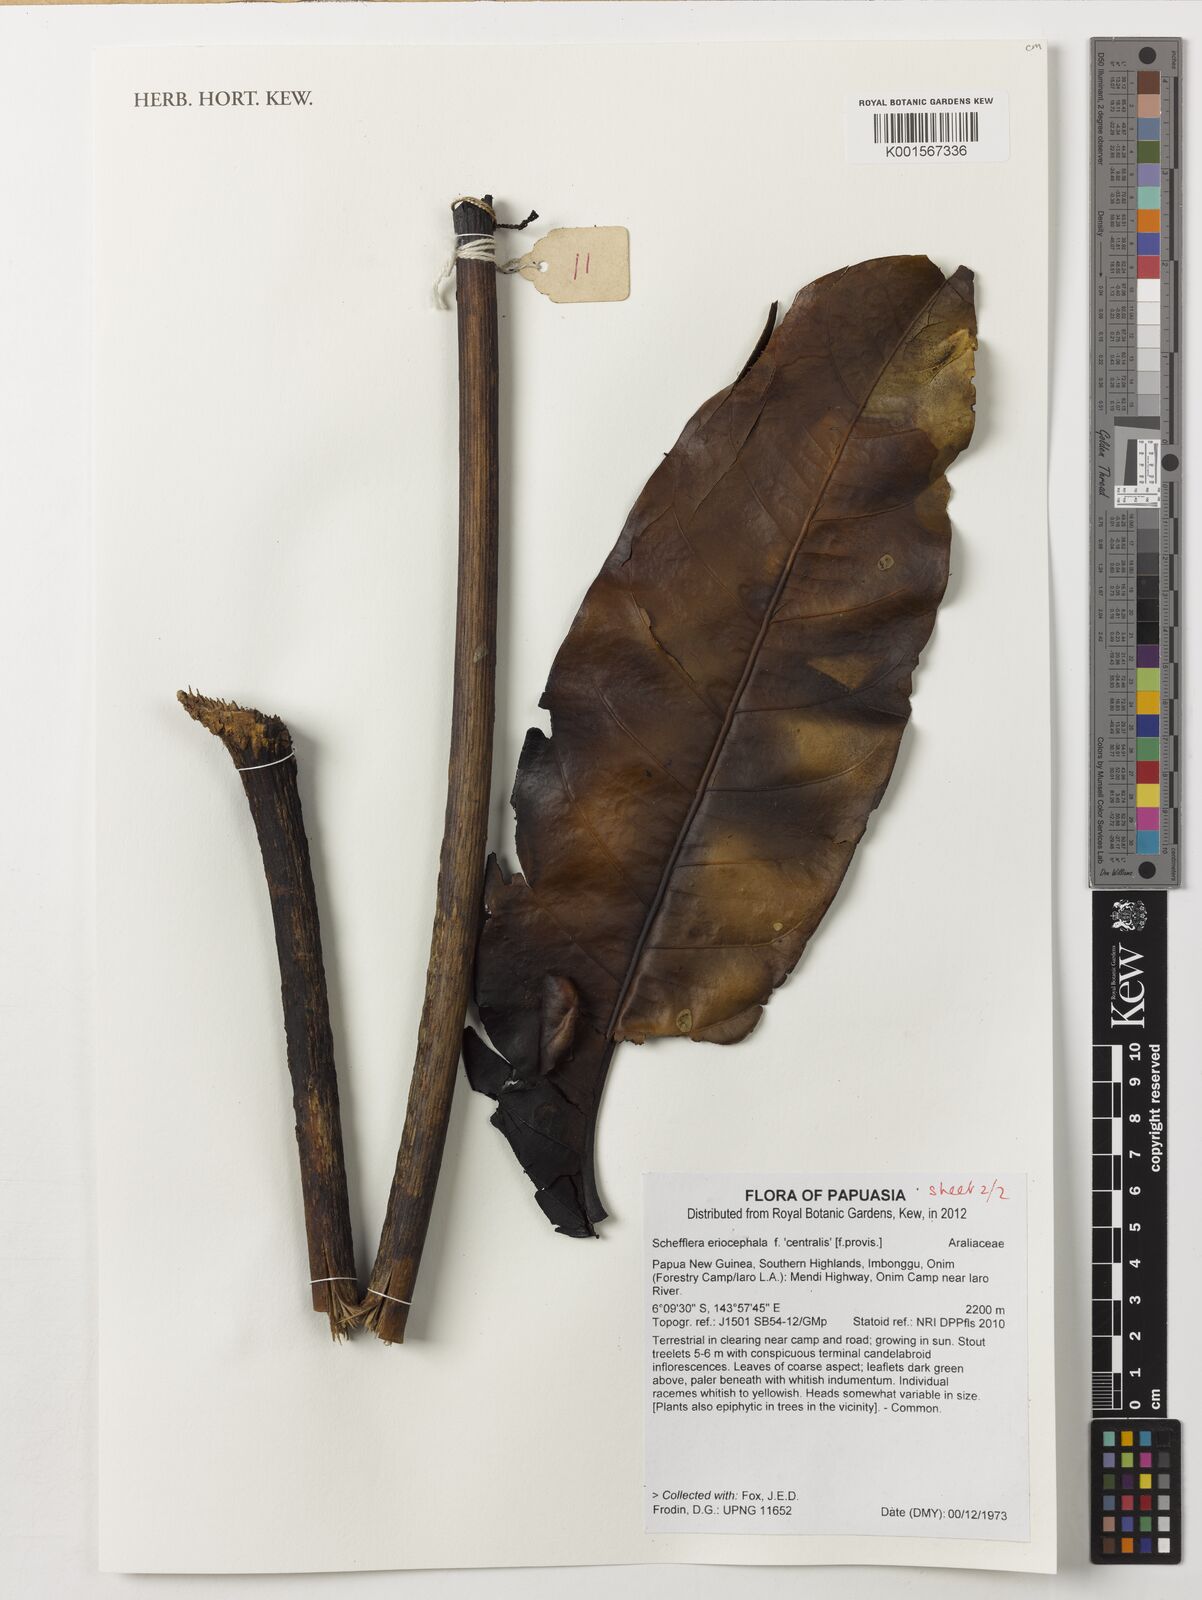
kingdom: Plantae
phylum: Tracheophyta
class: Magnoliopsida
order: Apiales
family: Araliaceae
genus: Heptapleurum
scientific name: Heptapleurum eriocephalum
